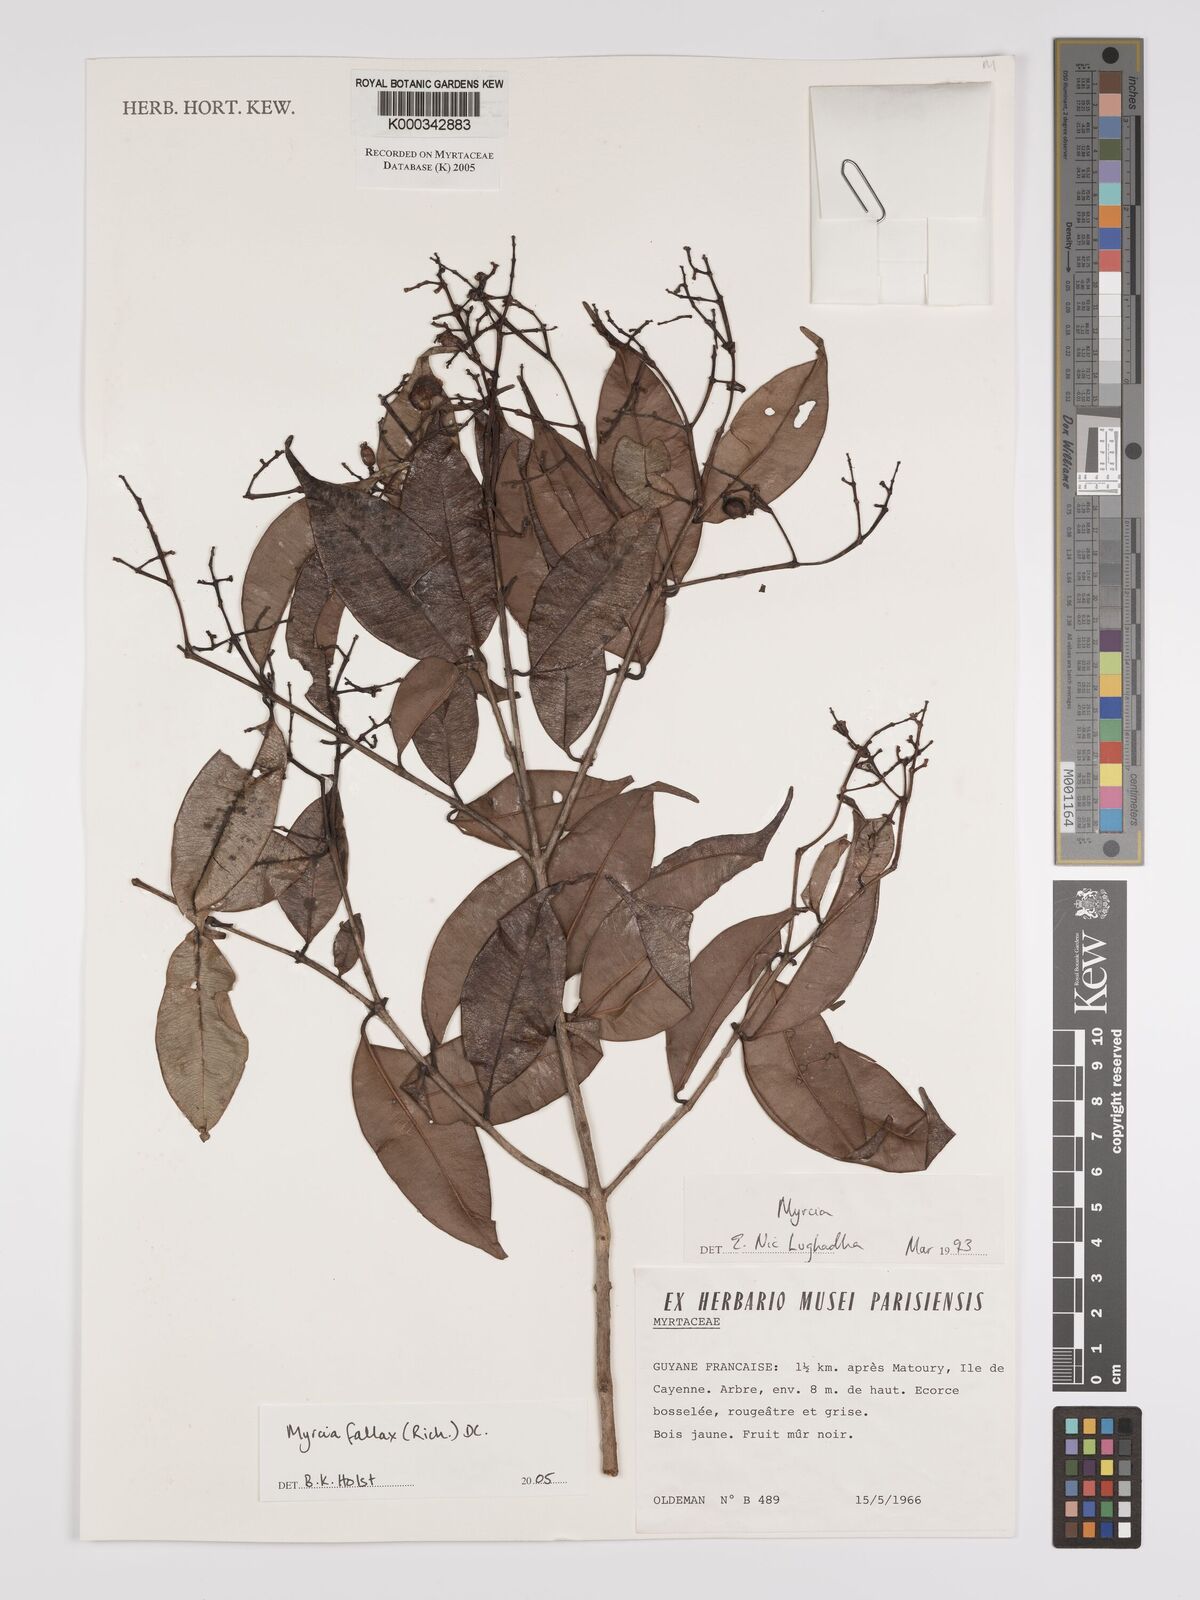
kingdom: Plantae
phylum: Tracheophyta
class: Magnoliopsida
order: Myrtales
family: Myrtaceae
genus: Myrcia
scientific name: Myrcia splendens
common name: Surinam cherry
